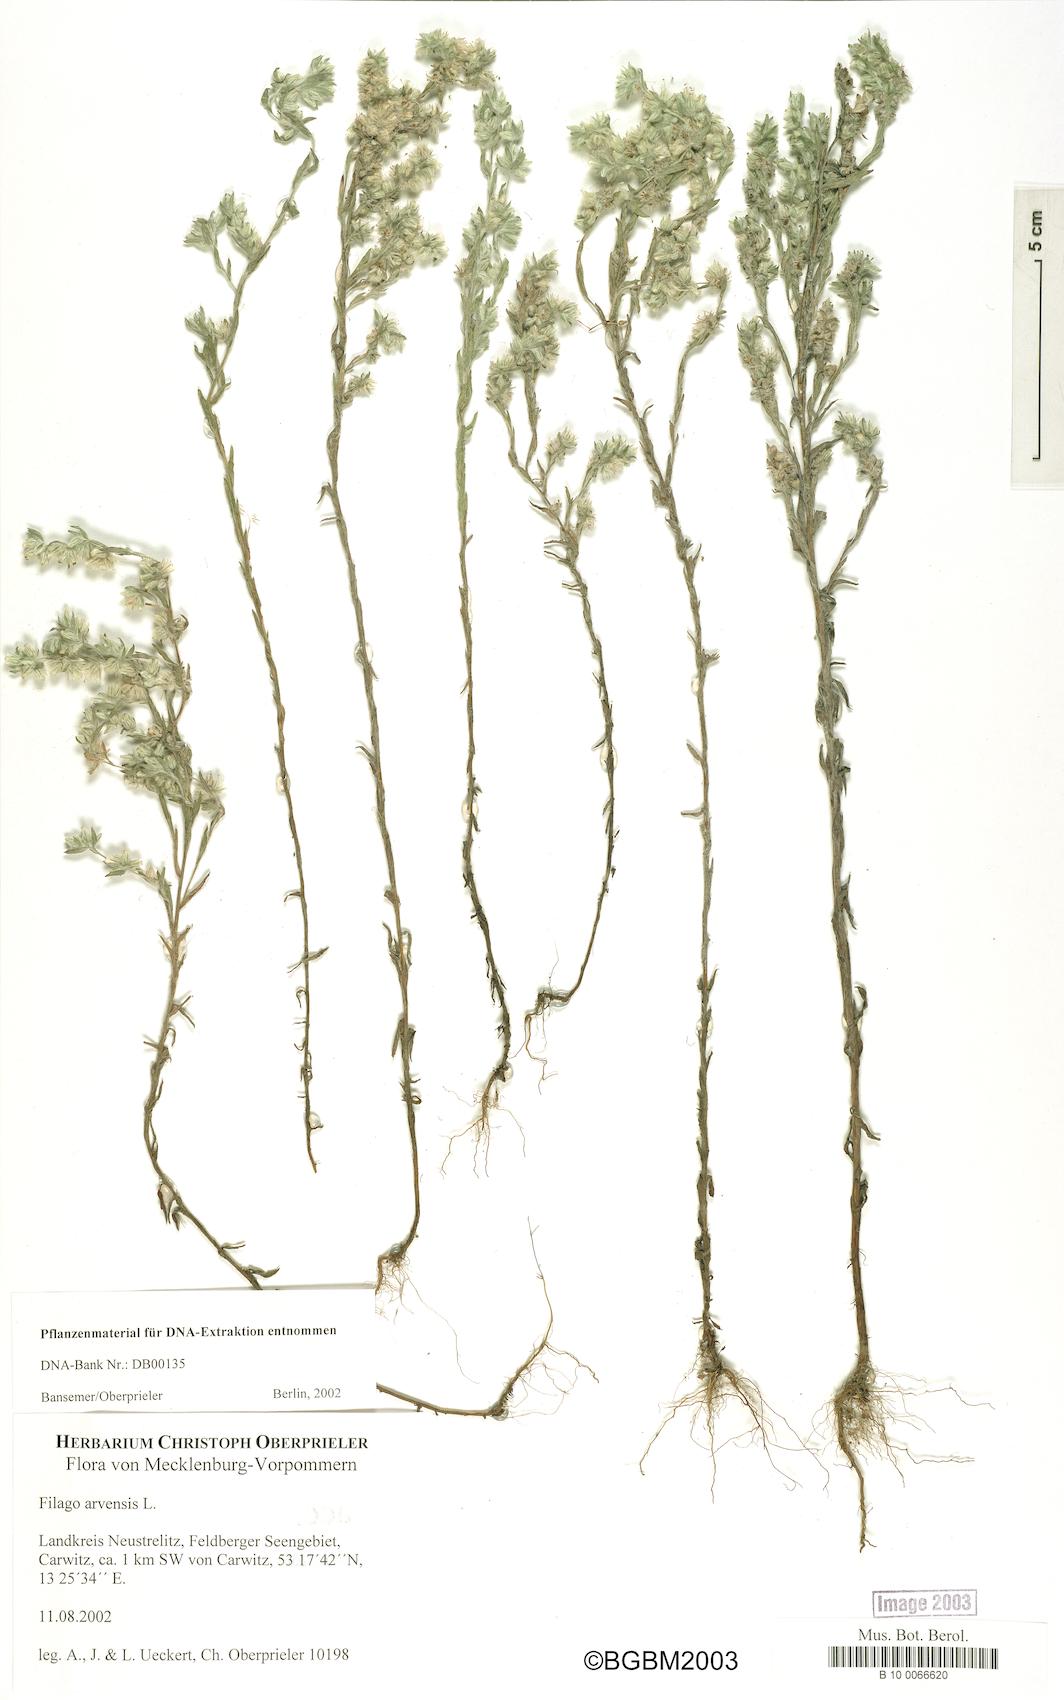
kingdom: Plantae
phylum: Tracheophyta
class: Magnoliopsida
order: Asterales
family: Asteraceae
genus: Filago
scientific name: Filago arvensis
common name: Field cudweed
